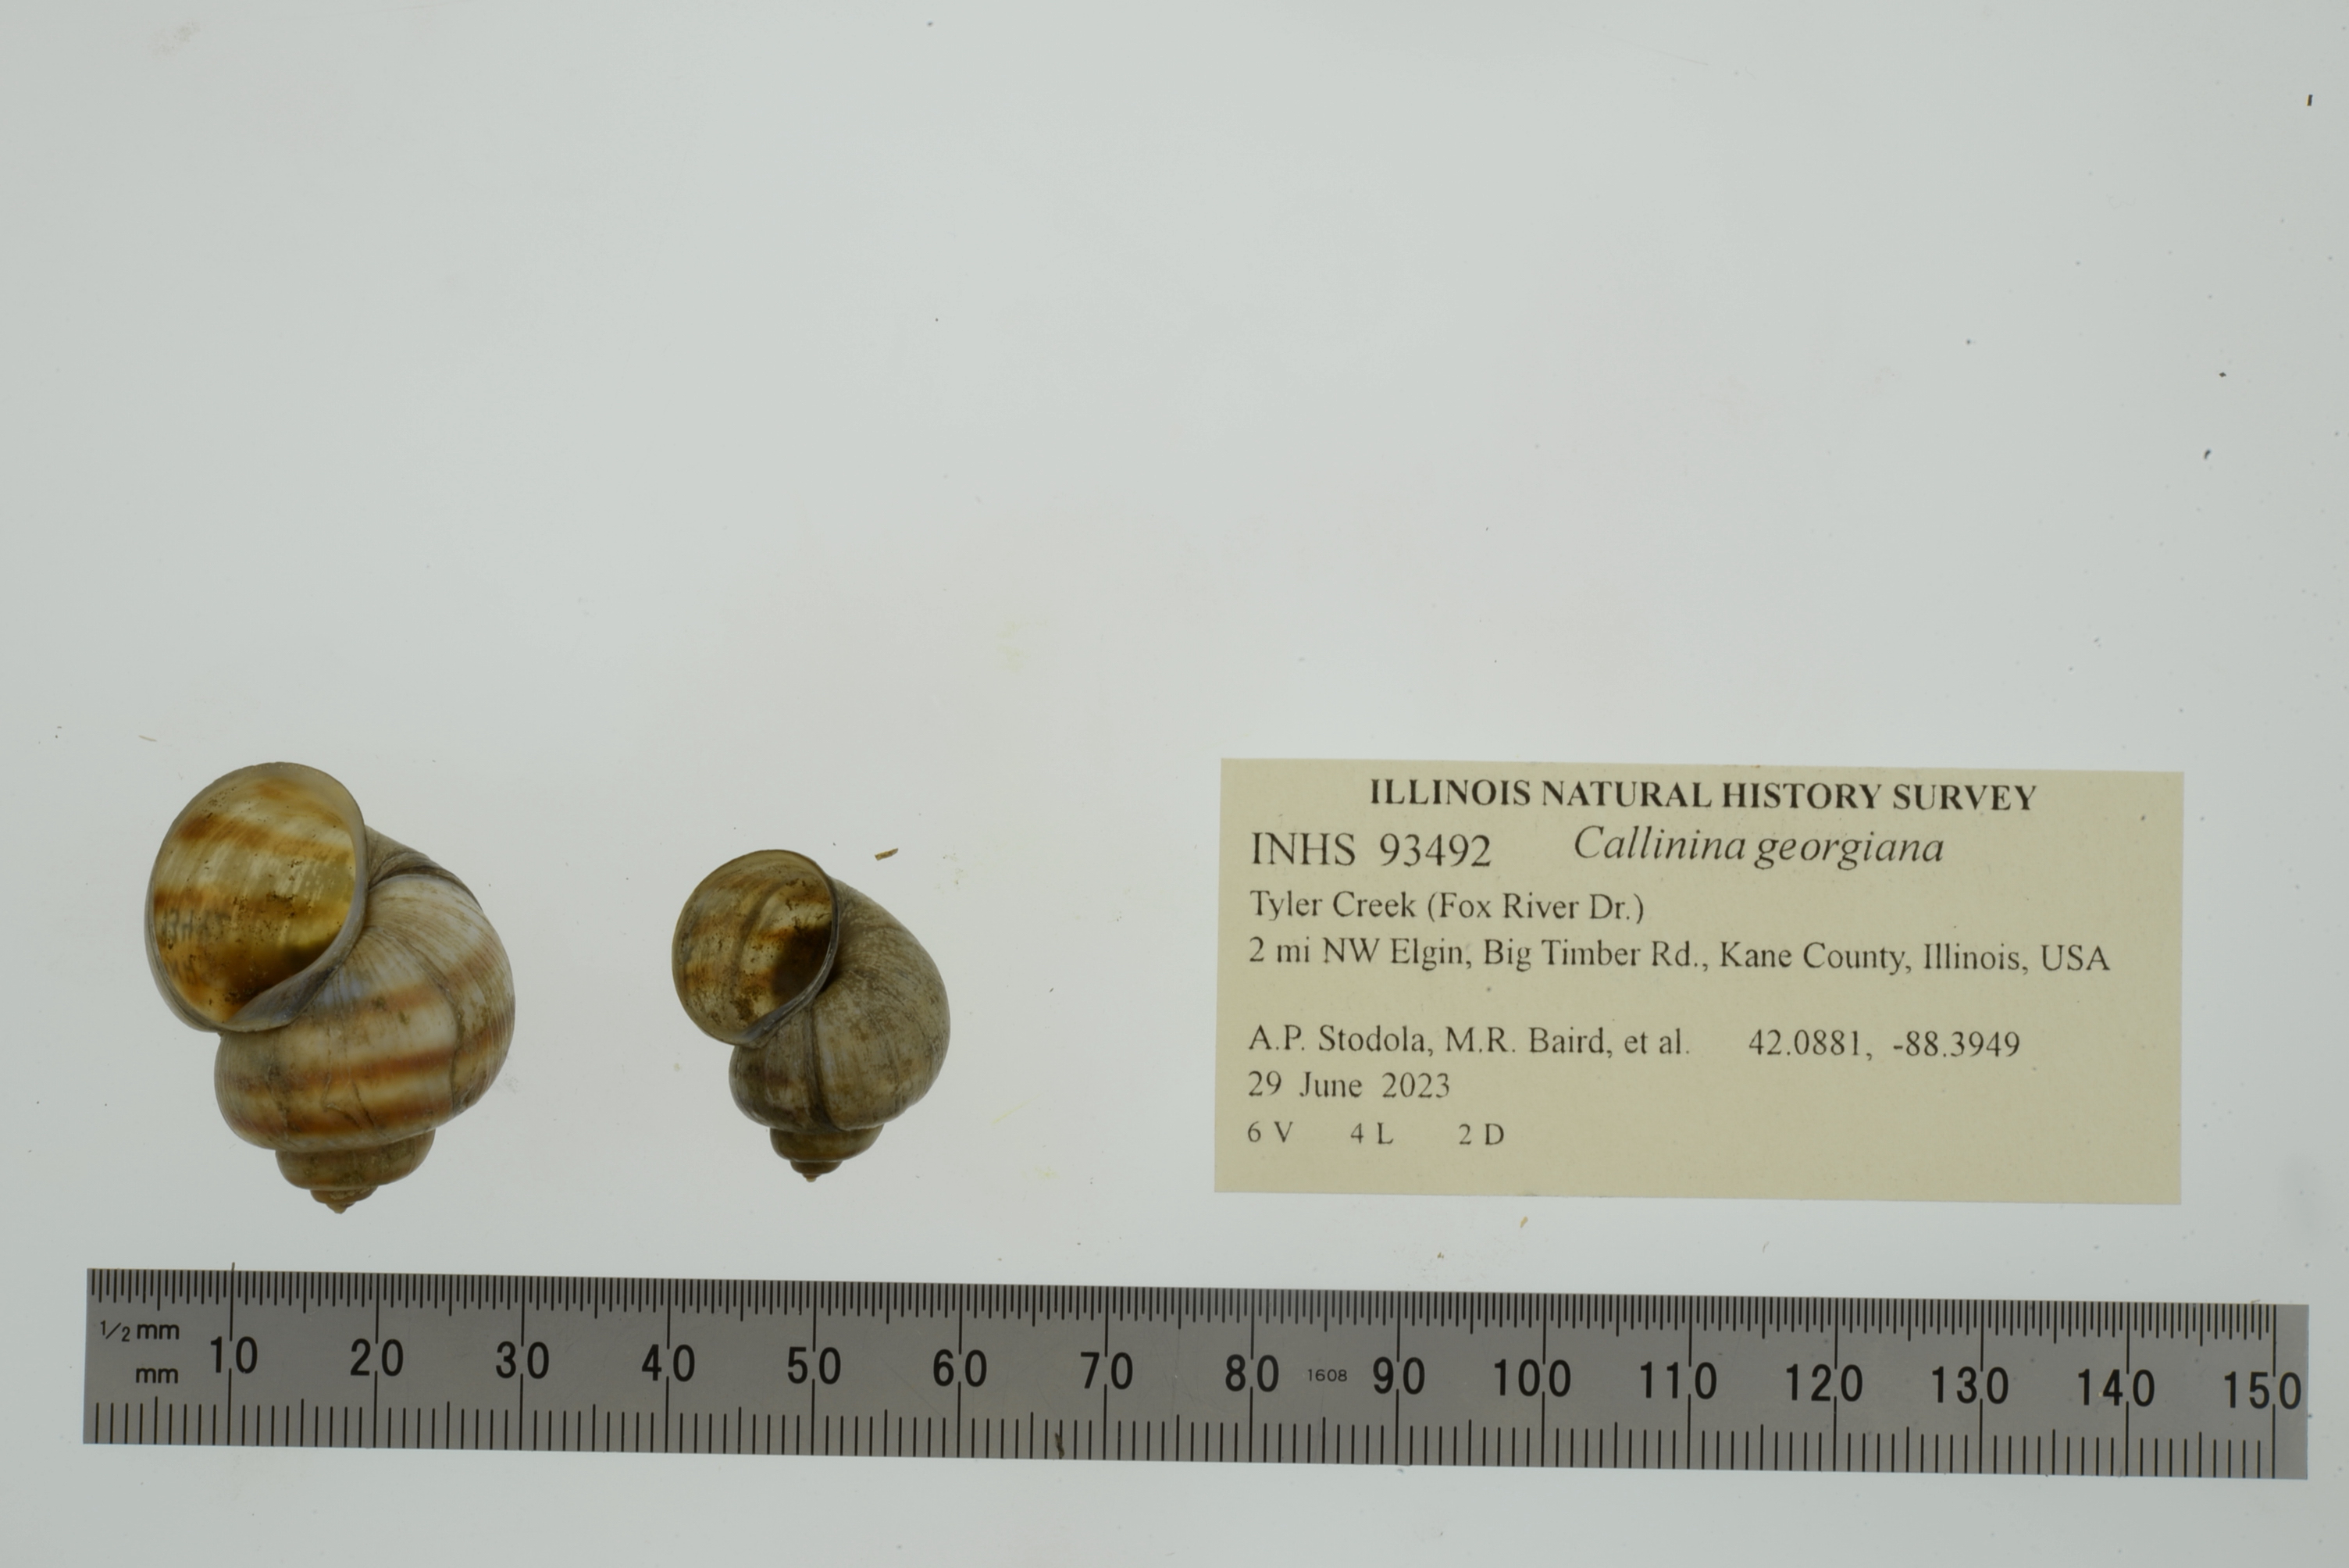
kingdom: Animalia
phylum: Mollusca
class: Gastropoda
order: Architaenioglossa
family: Viviparidae
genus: Callinina
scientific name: Callinina georgiana
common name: Banded mystery snail
